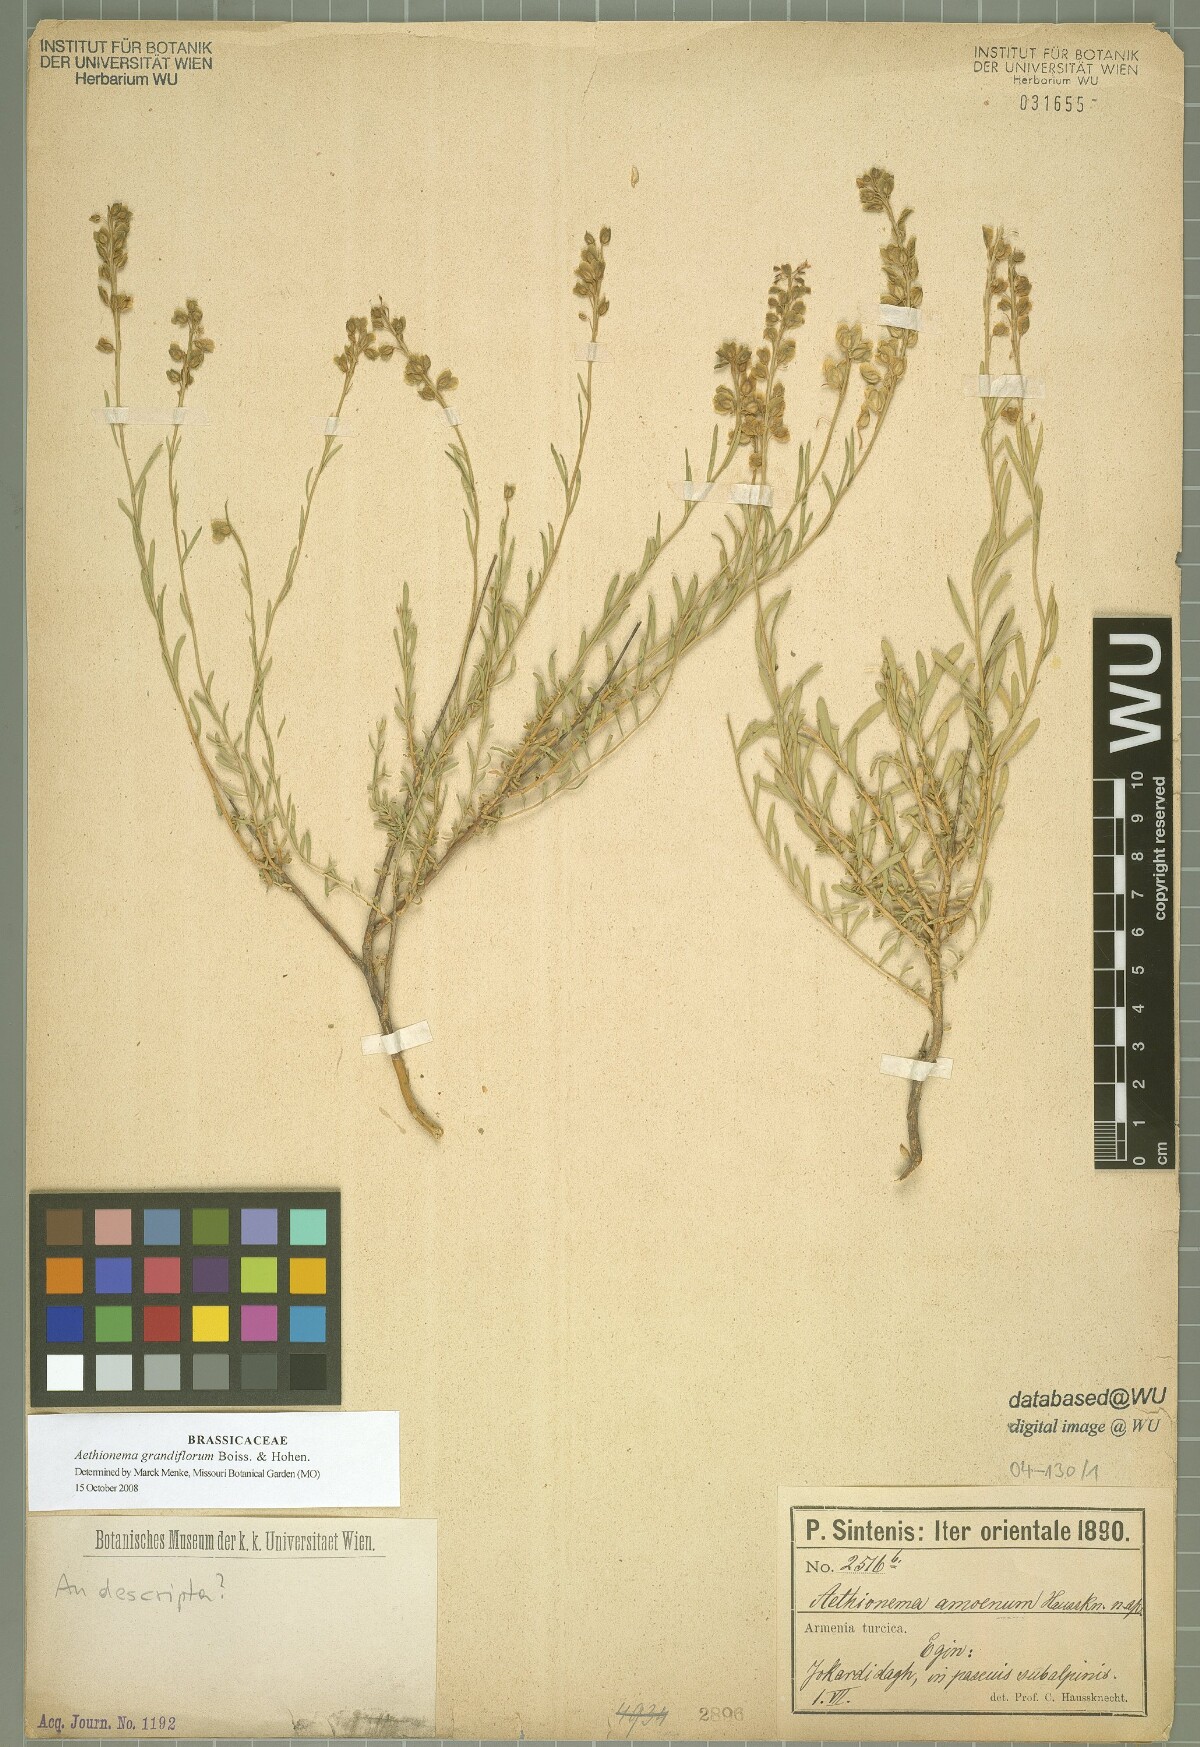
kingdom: Plantae
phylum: Tracheophyta
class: Magnoliopsida
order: Brassicales
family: Brassicaceae
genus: Aethionema
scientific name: Aethionema amoenum
